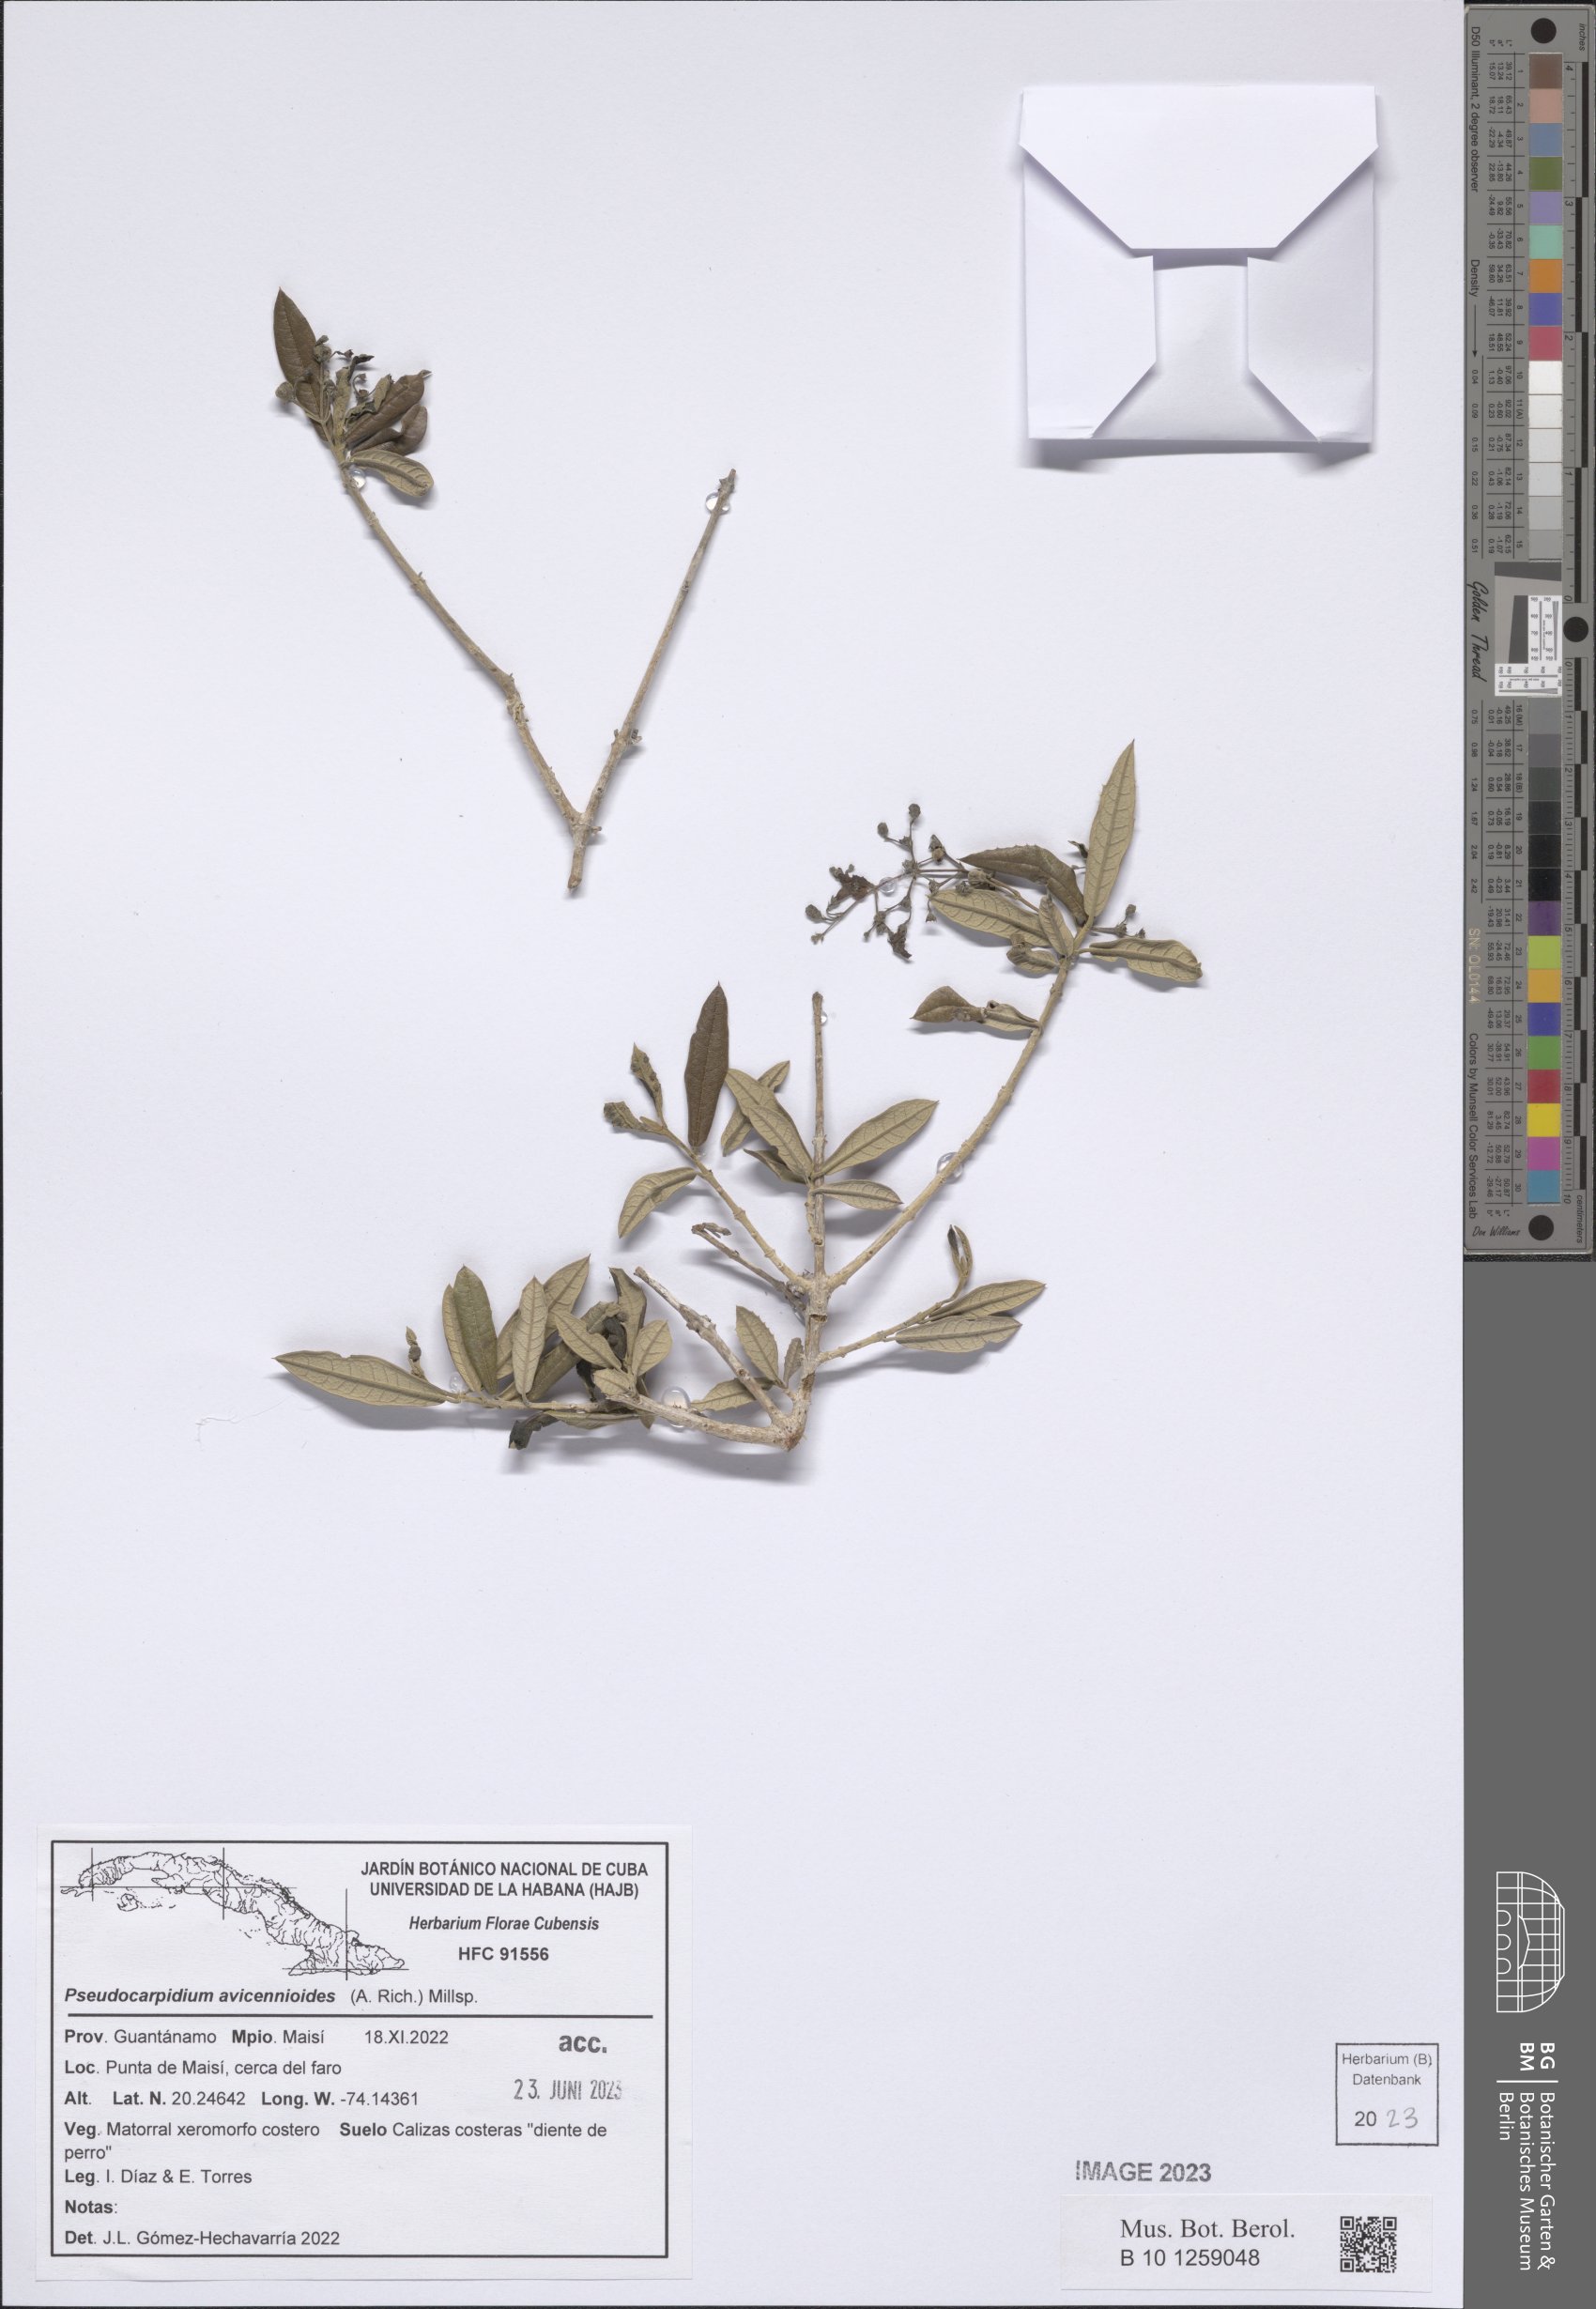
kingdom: Plantae
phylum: Tracheophyta
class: Magnoliopsida
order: Lamiales
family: Lamiaceae
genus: Pseudocarpidium
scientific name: Pseudocarpidium avicennioides
